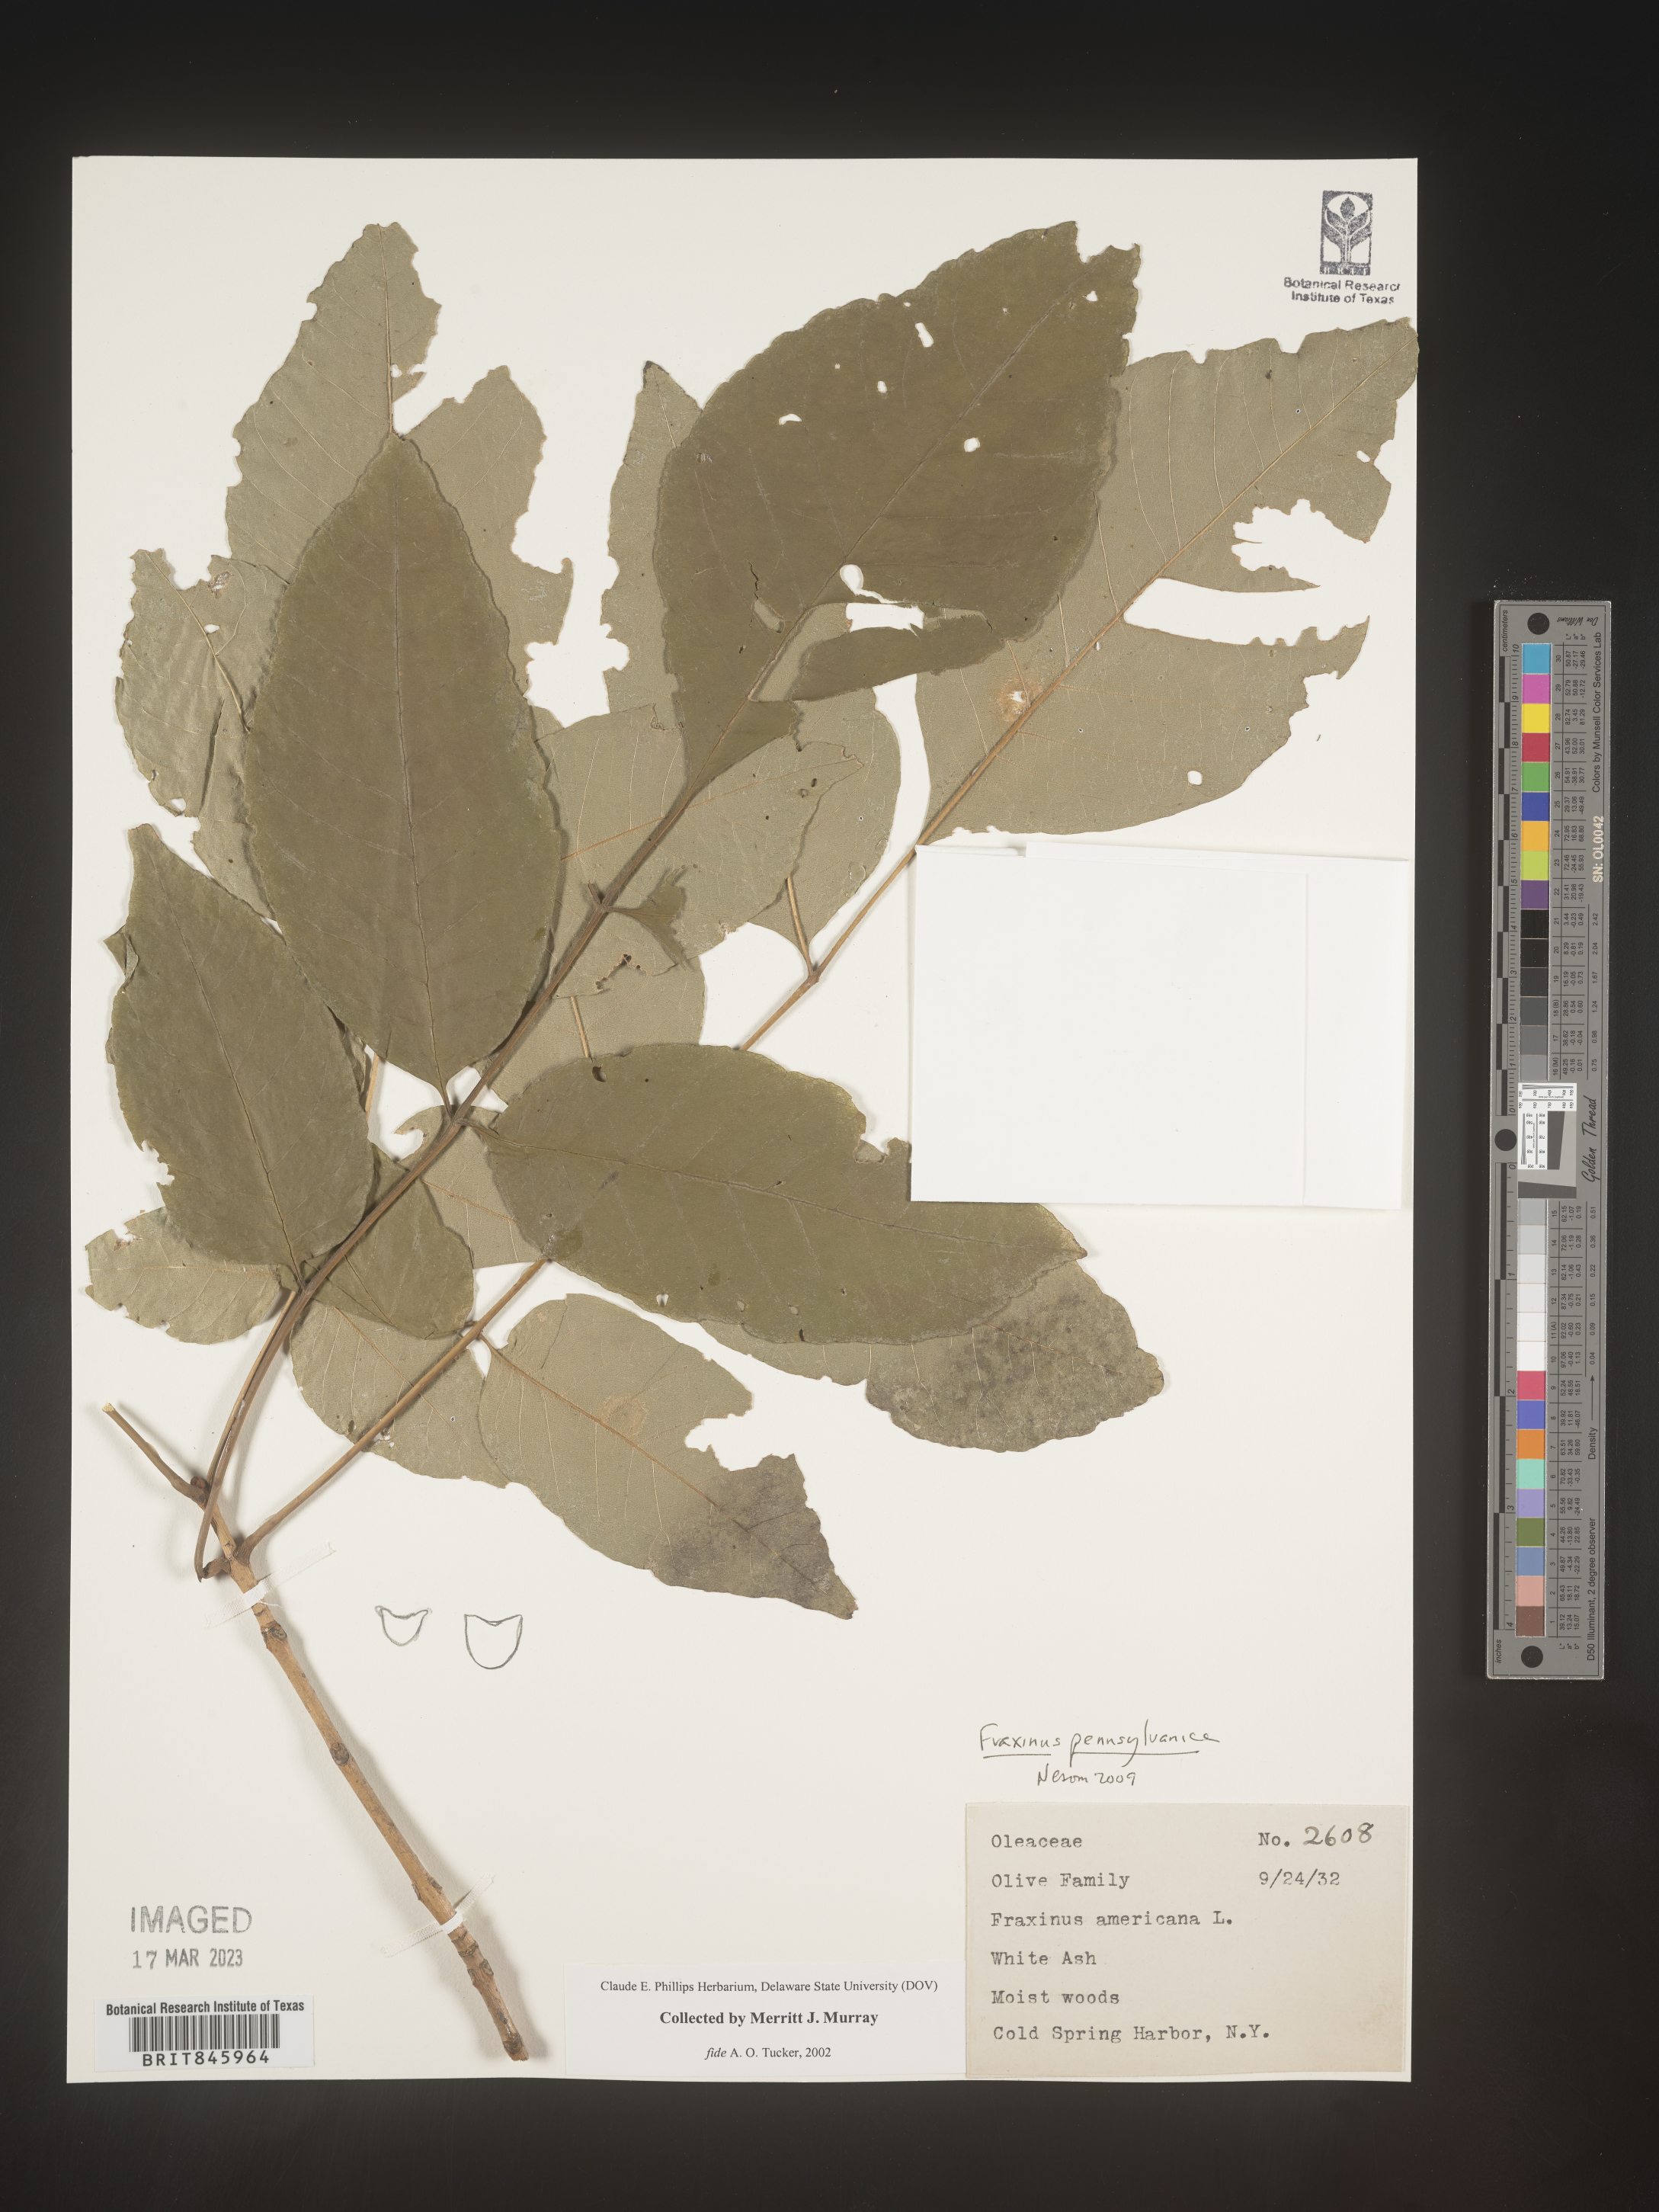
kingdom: Plantae
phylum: Tracheophyta
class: Magnoliopsida
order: Lamiales
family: Oleaceae
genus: Fraxinus
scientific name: Fraxinus
